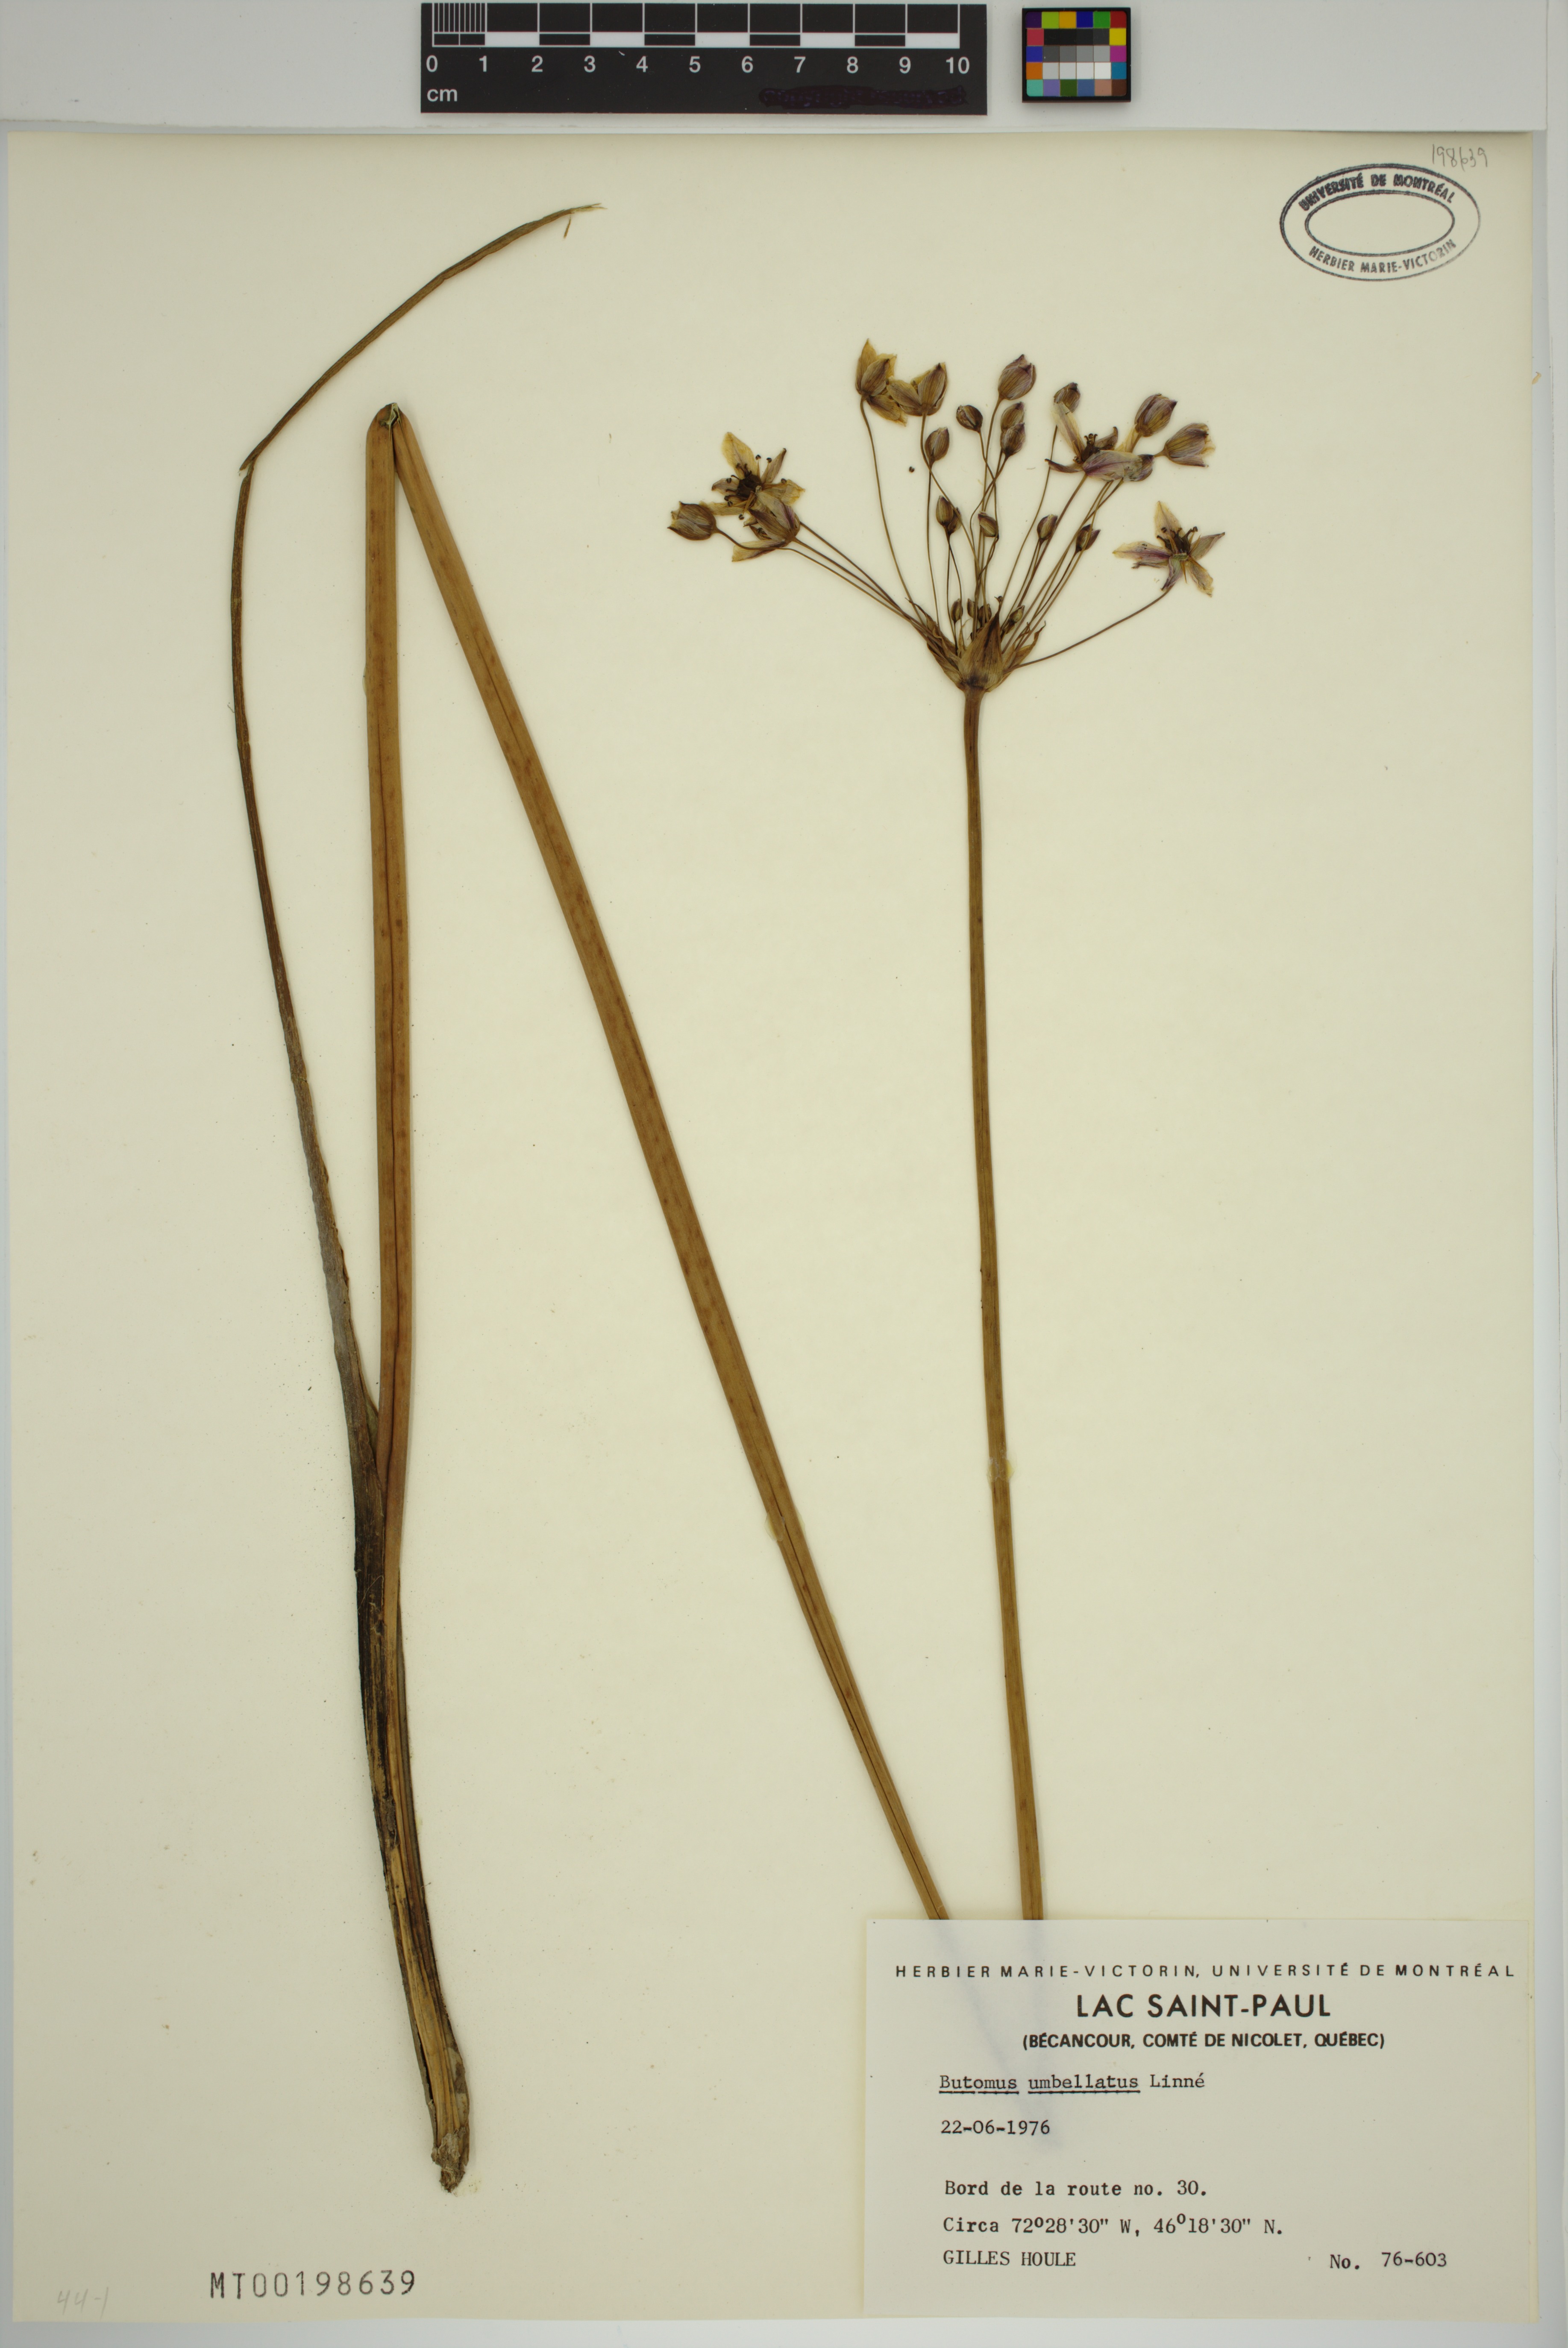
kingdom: Plantae
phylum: Tracheophyta
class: Liliopsida
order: Alismatales
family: Butomaceae
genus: Butomus
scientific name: Butomus umbellatus
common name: Flowering-rush
